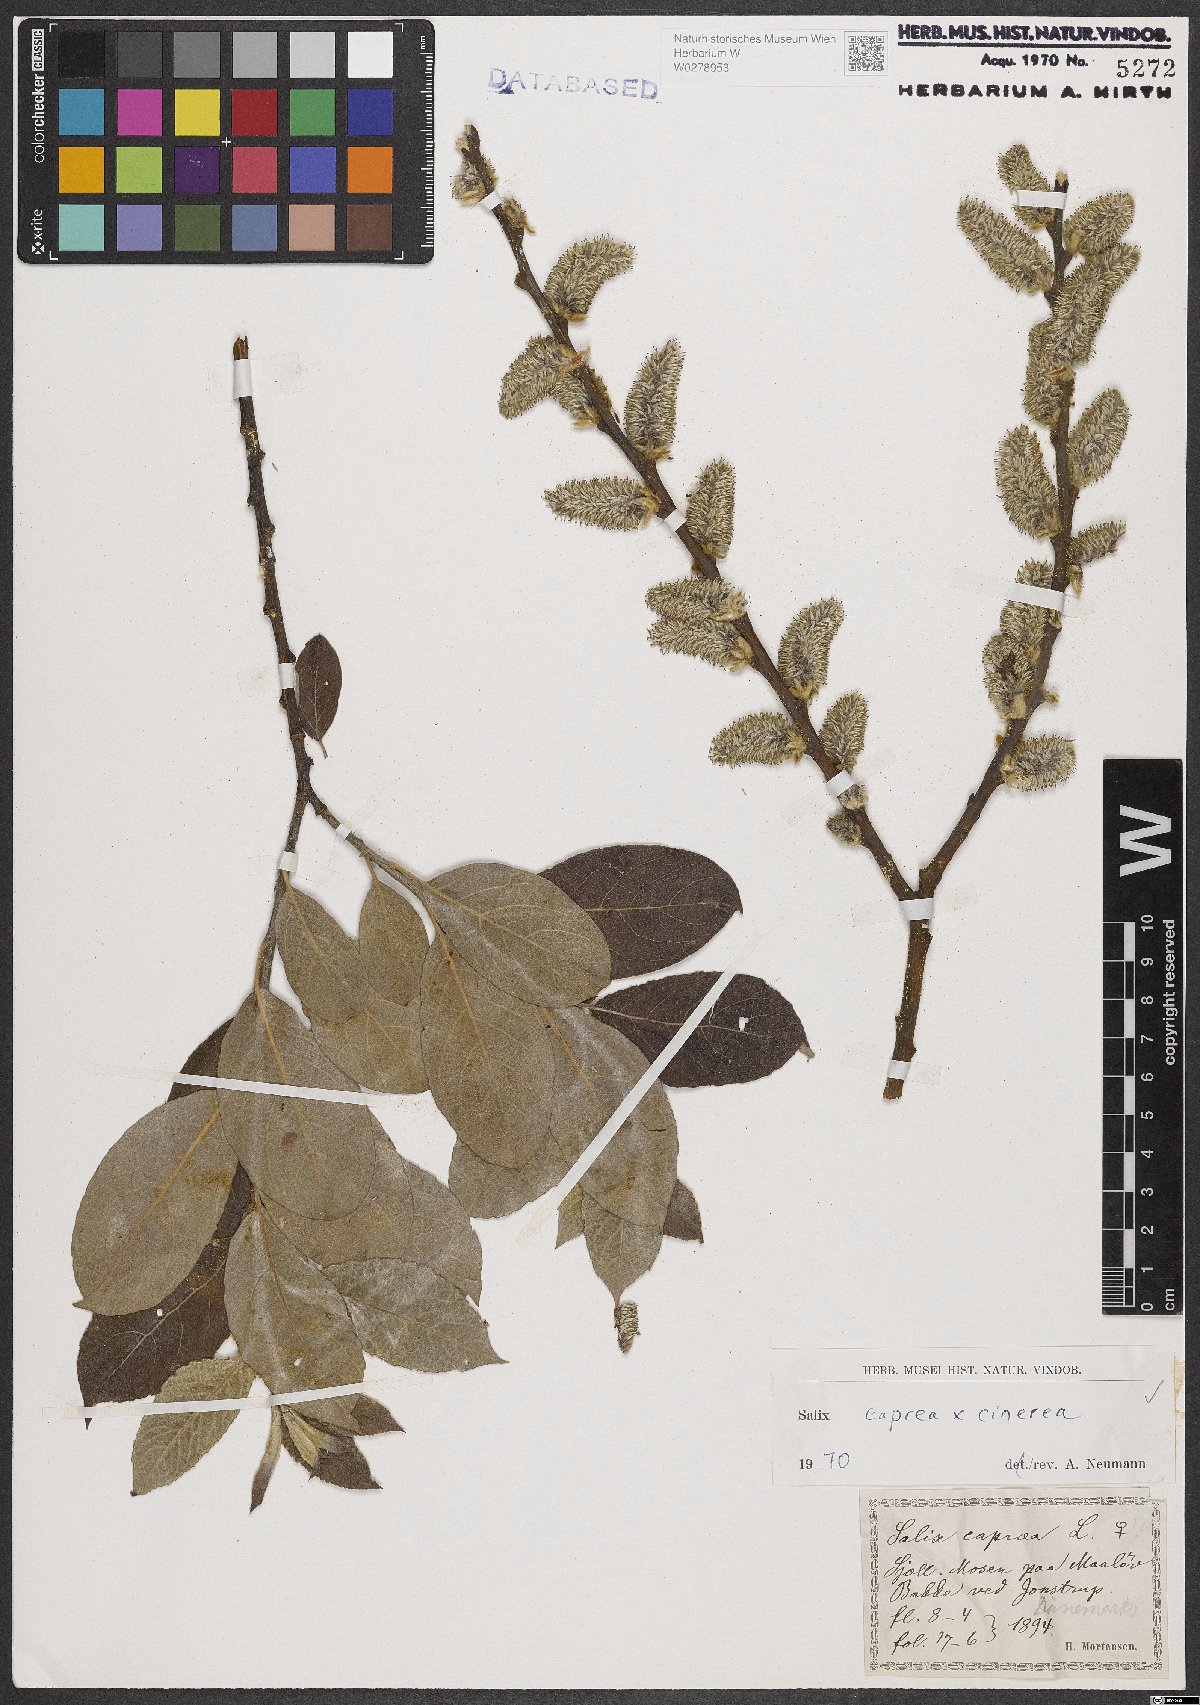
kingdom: Plantae
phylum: Tracheophyta
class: Magnoliopsida
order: Malpighiales
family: Salicaceae
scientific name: Salicaceae
